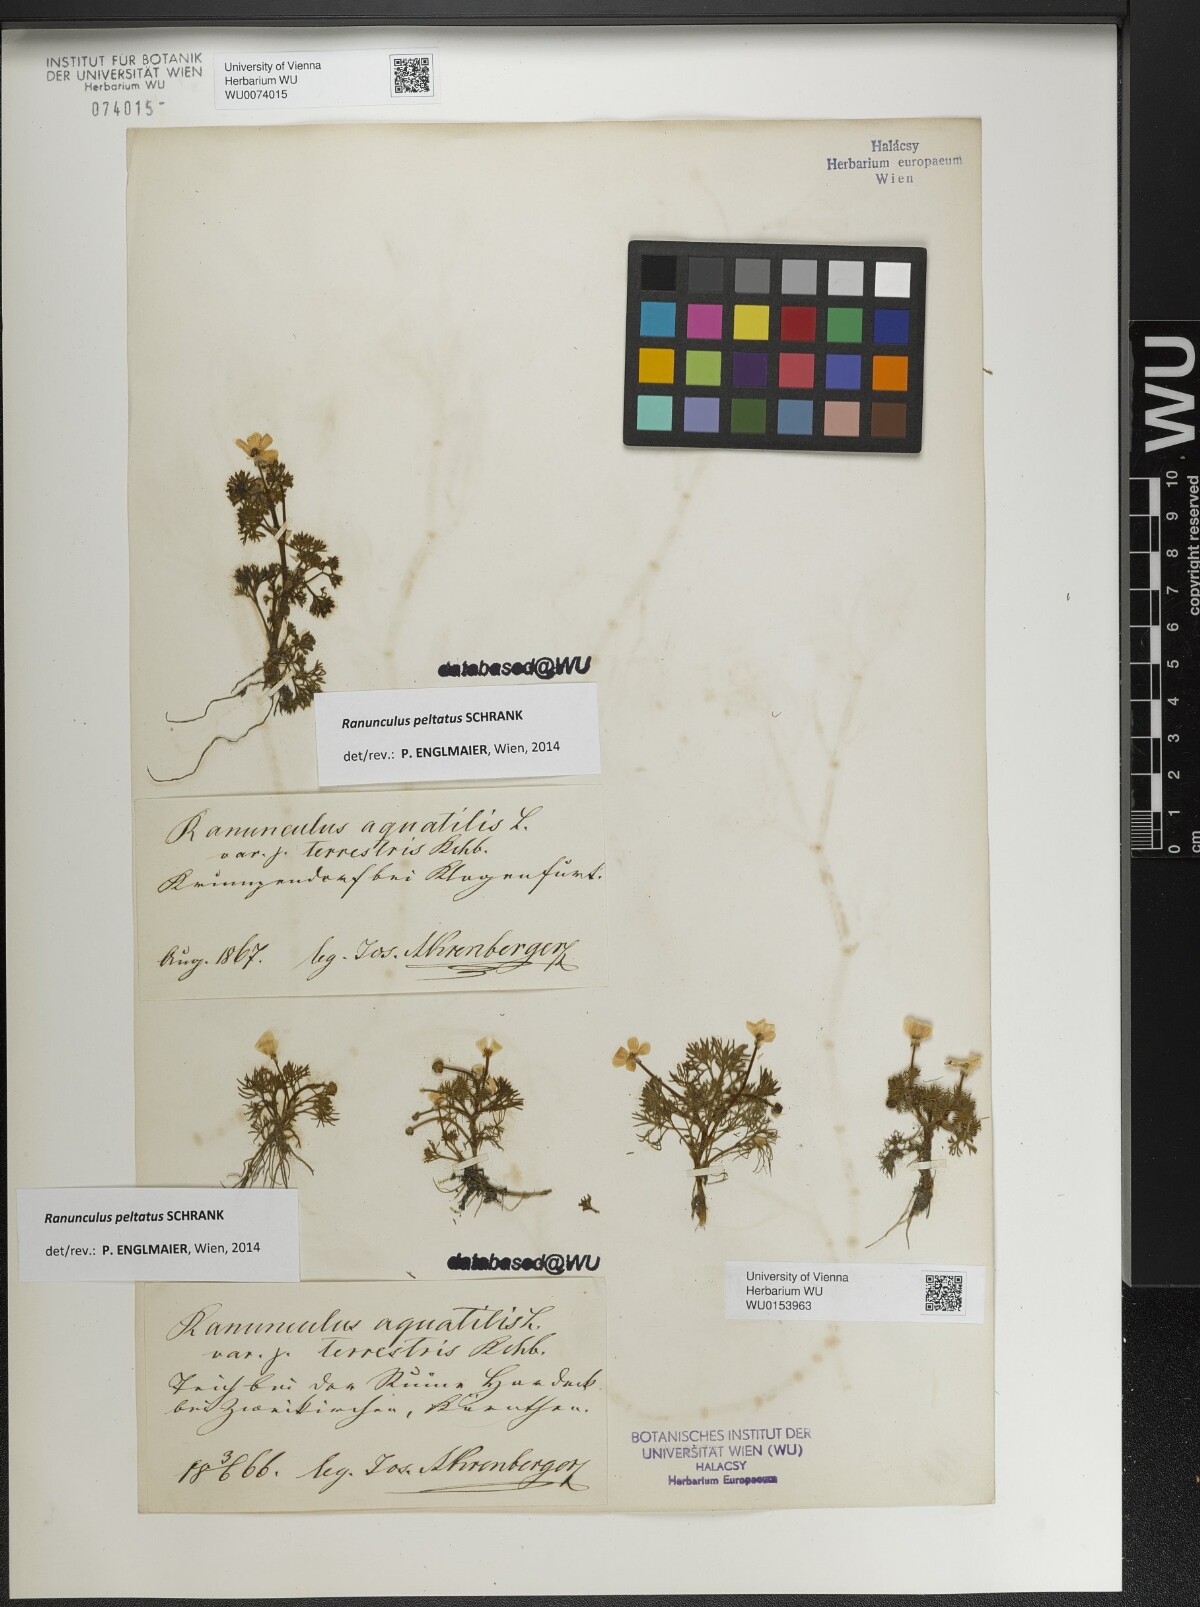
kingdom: Plantae
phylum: Tracheophyta
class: Magnoliopsida
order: Ranunculales
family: Ranunculaceae
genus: Ranunculus
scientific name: Ranunculus peltatus
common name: Pond water-crowfoot
